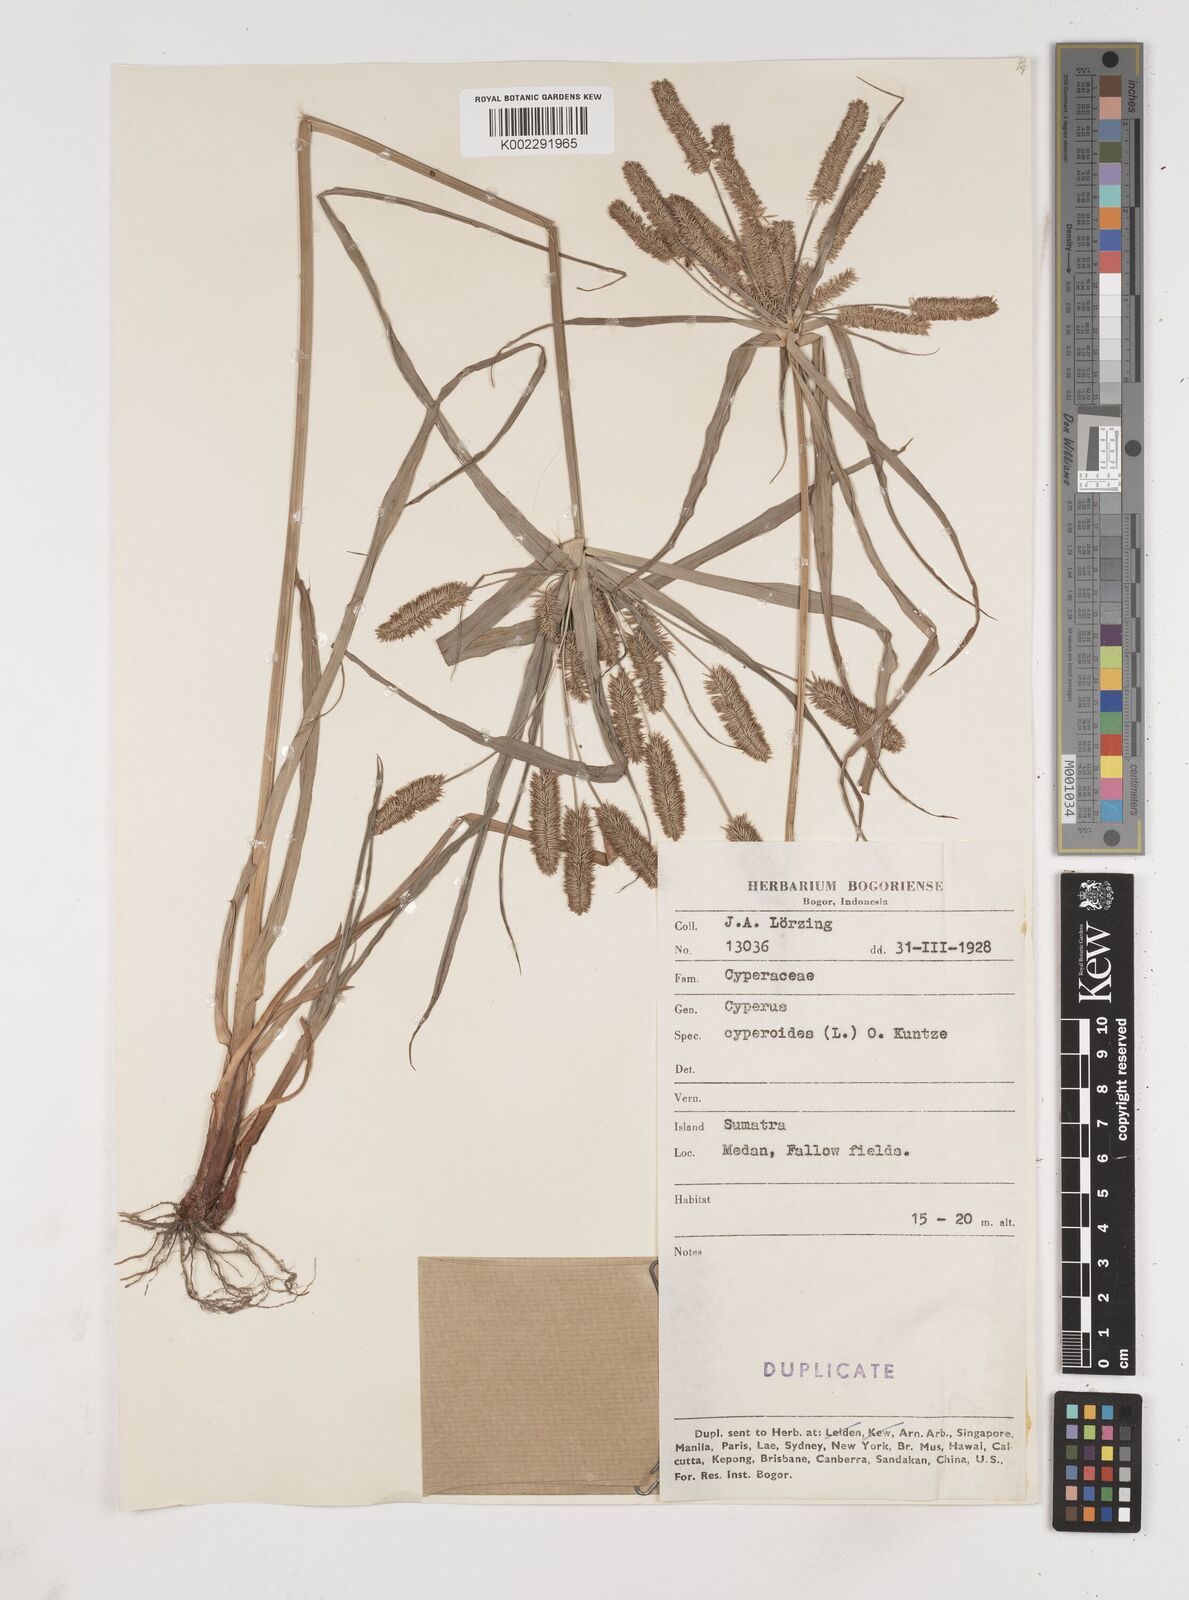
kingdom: Plantae
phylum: Tracheophyta
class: Liliopsida
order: Poales
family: Cyperaceae
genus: Cyperus
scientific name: Cyperus cyperoides
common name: Pacific island flat sedge
